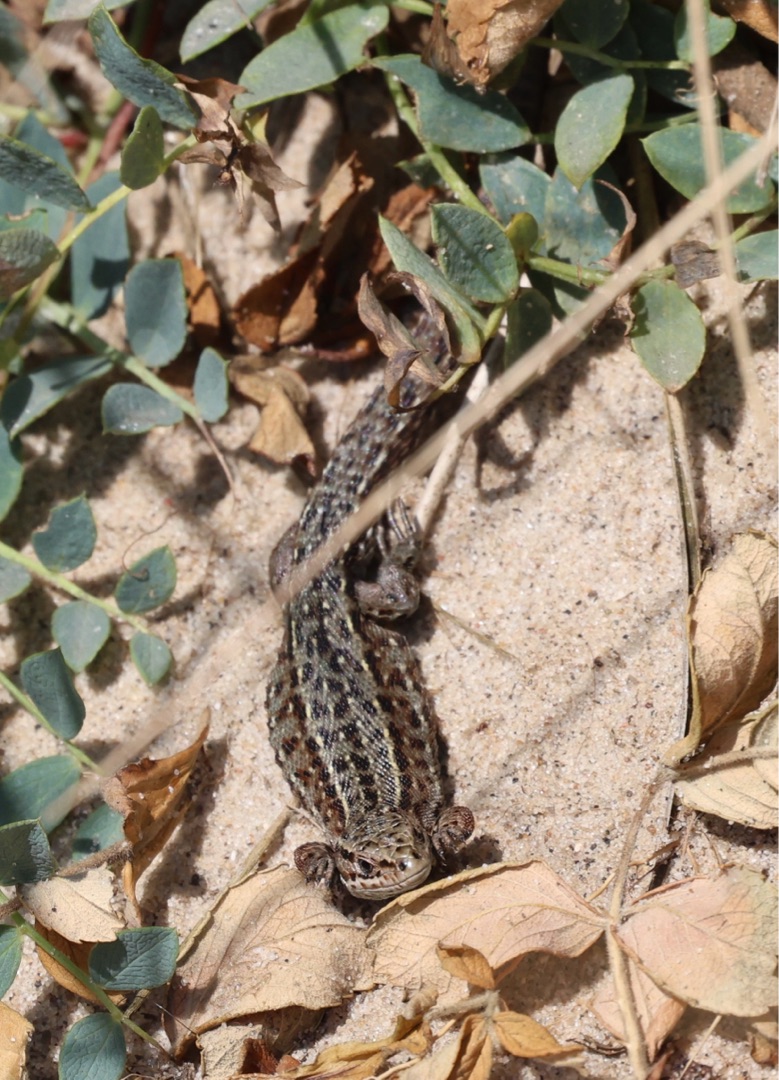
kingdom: Animalia
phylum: Chordata
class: Squamata
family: Lacertidae
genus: Zootoca
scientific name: Zootoca vivipara
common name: Skovfirben
